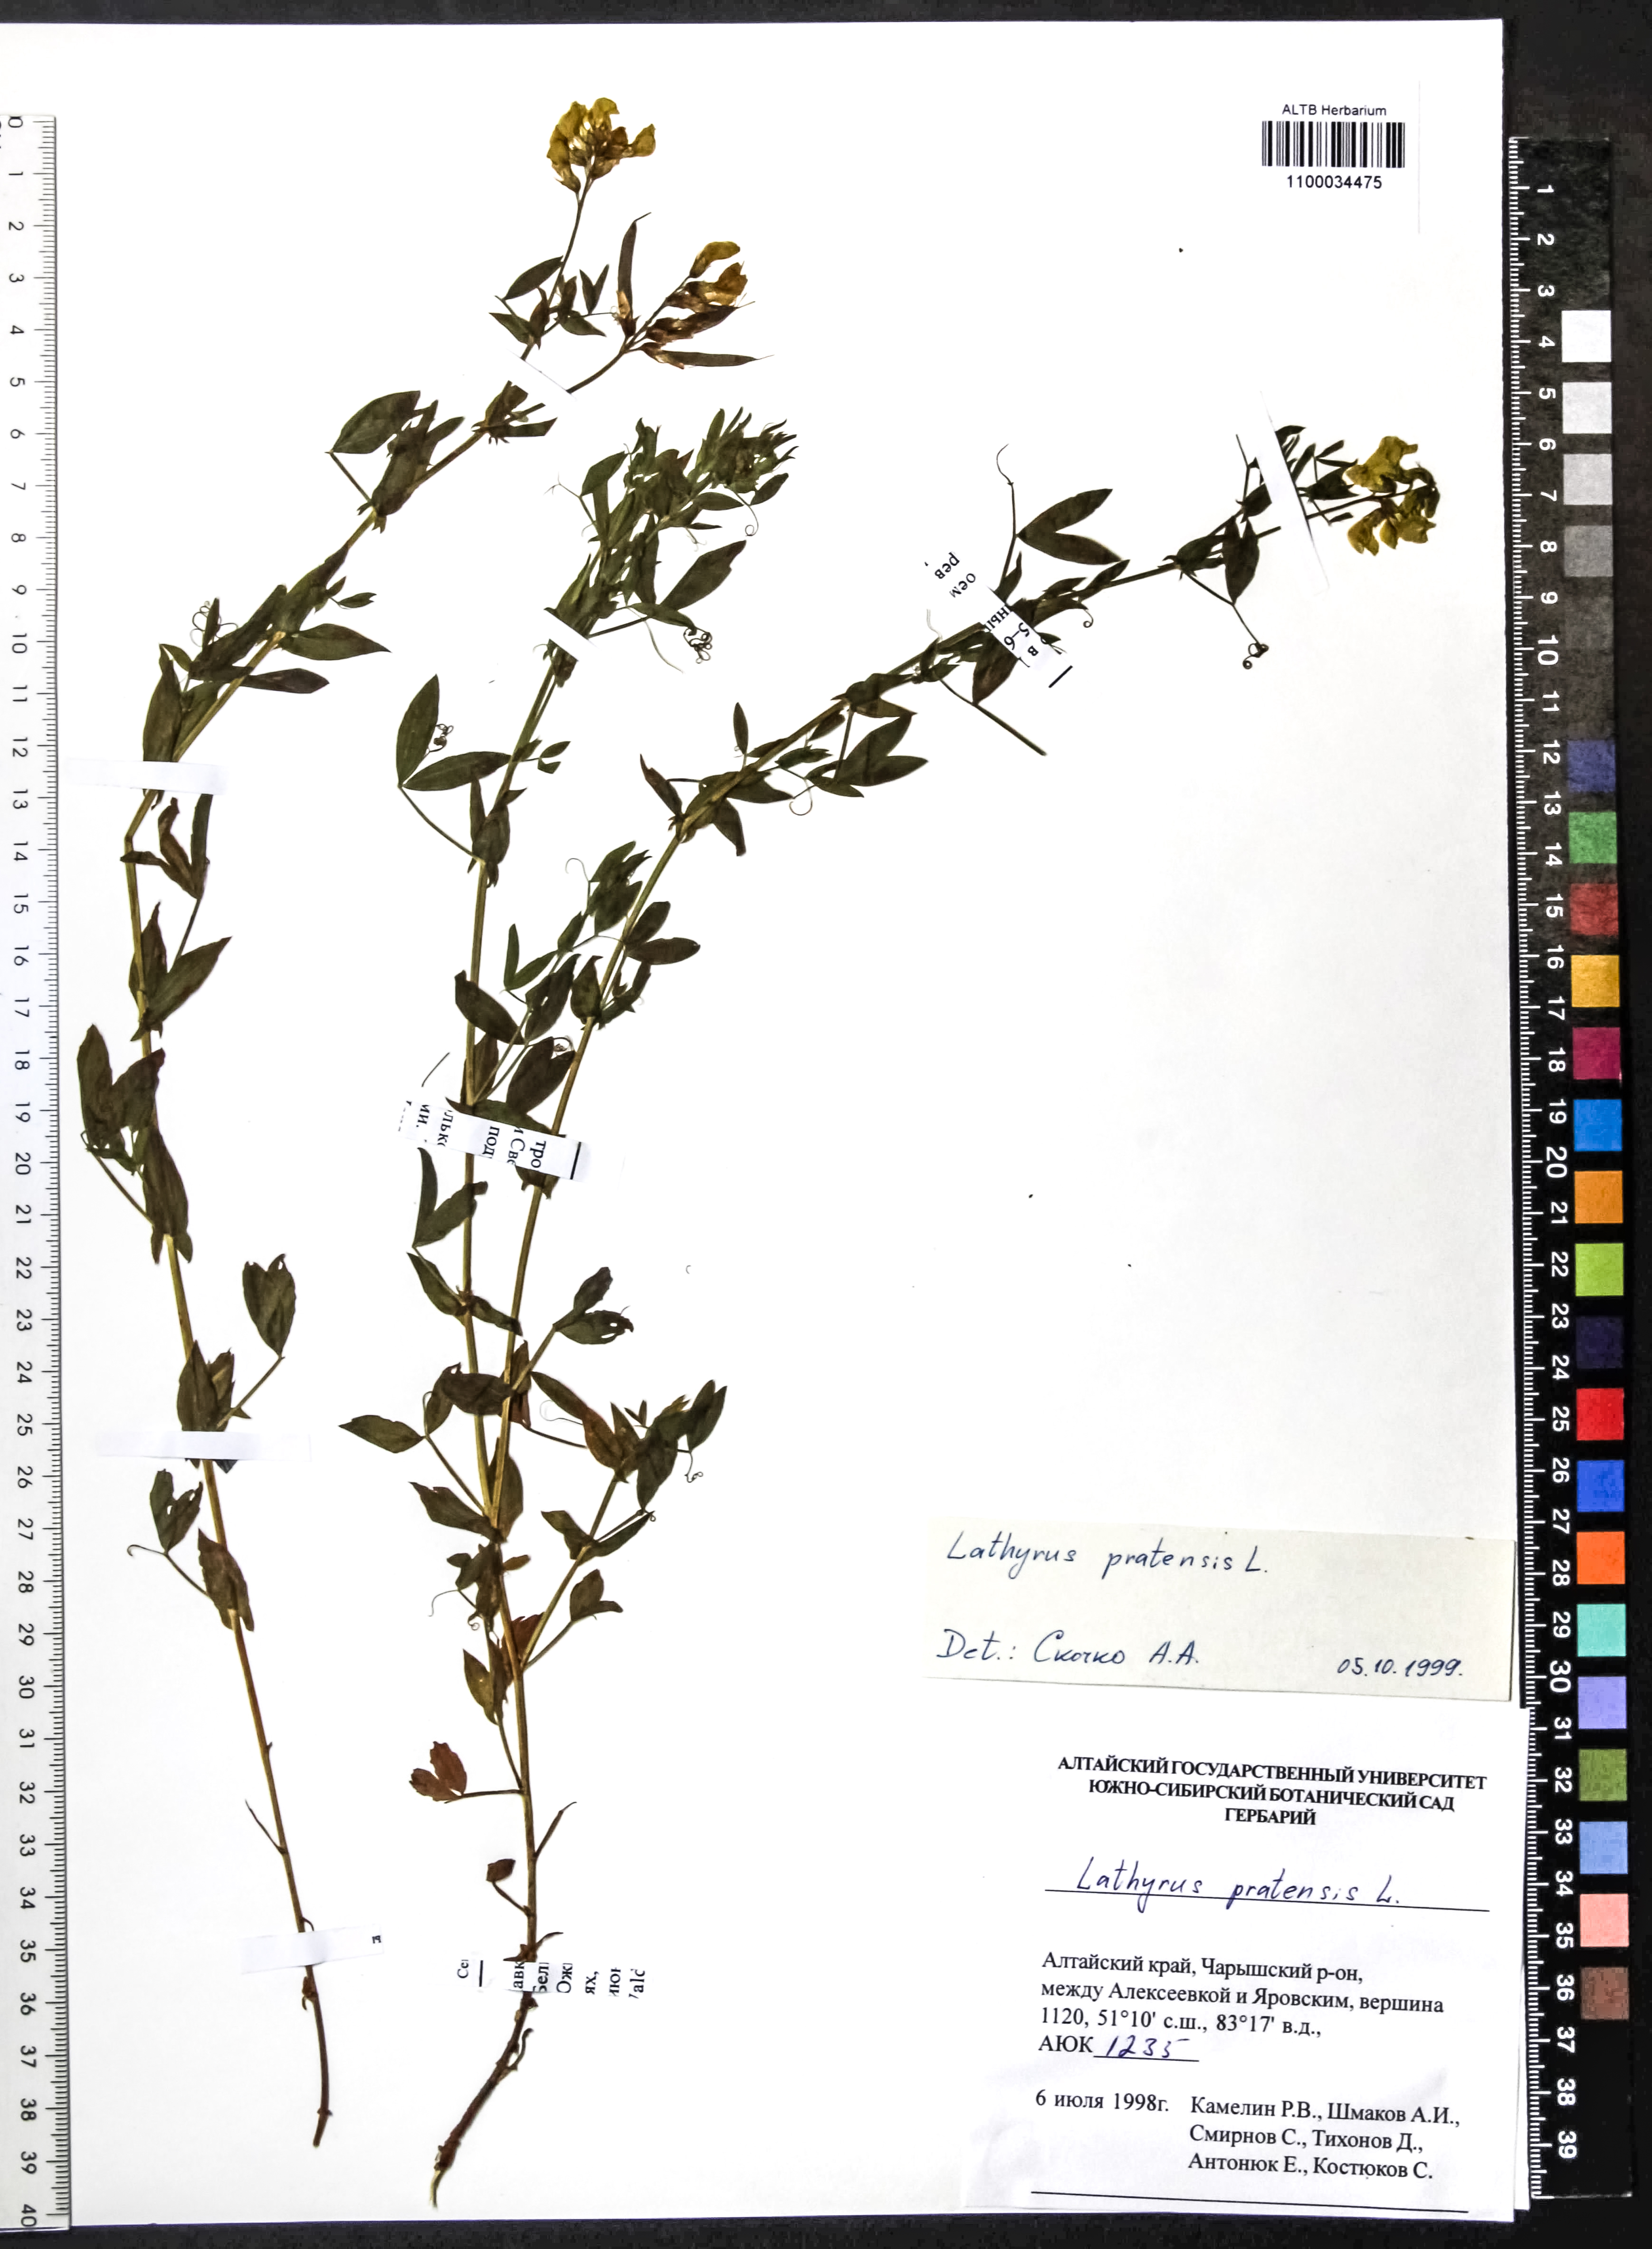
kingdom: Plantae
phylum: Tracheophyta
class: Magnoliopsida
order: Fabales
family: Fabaceae
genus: Lathyrus
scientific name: Lathyrus pratensis
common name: Meadow vetchling
